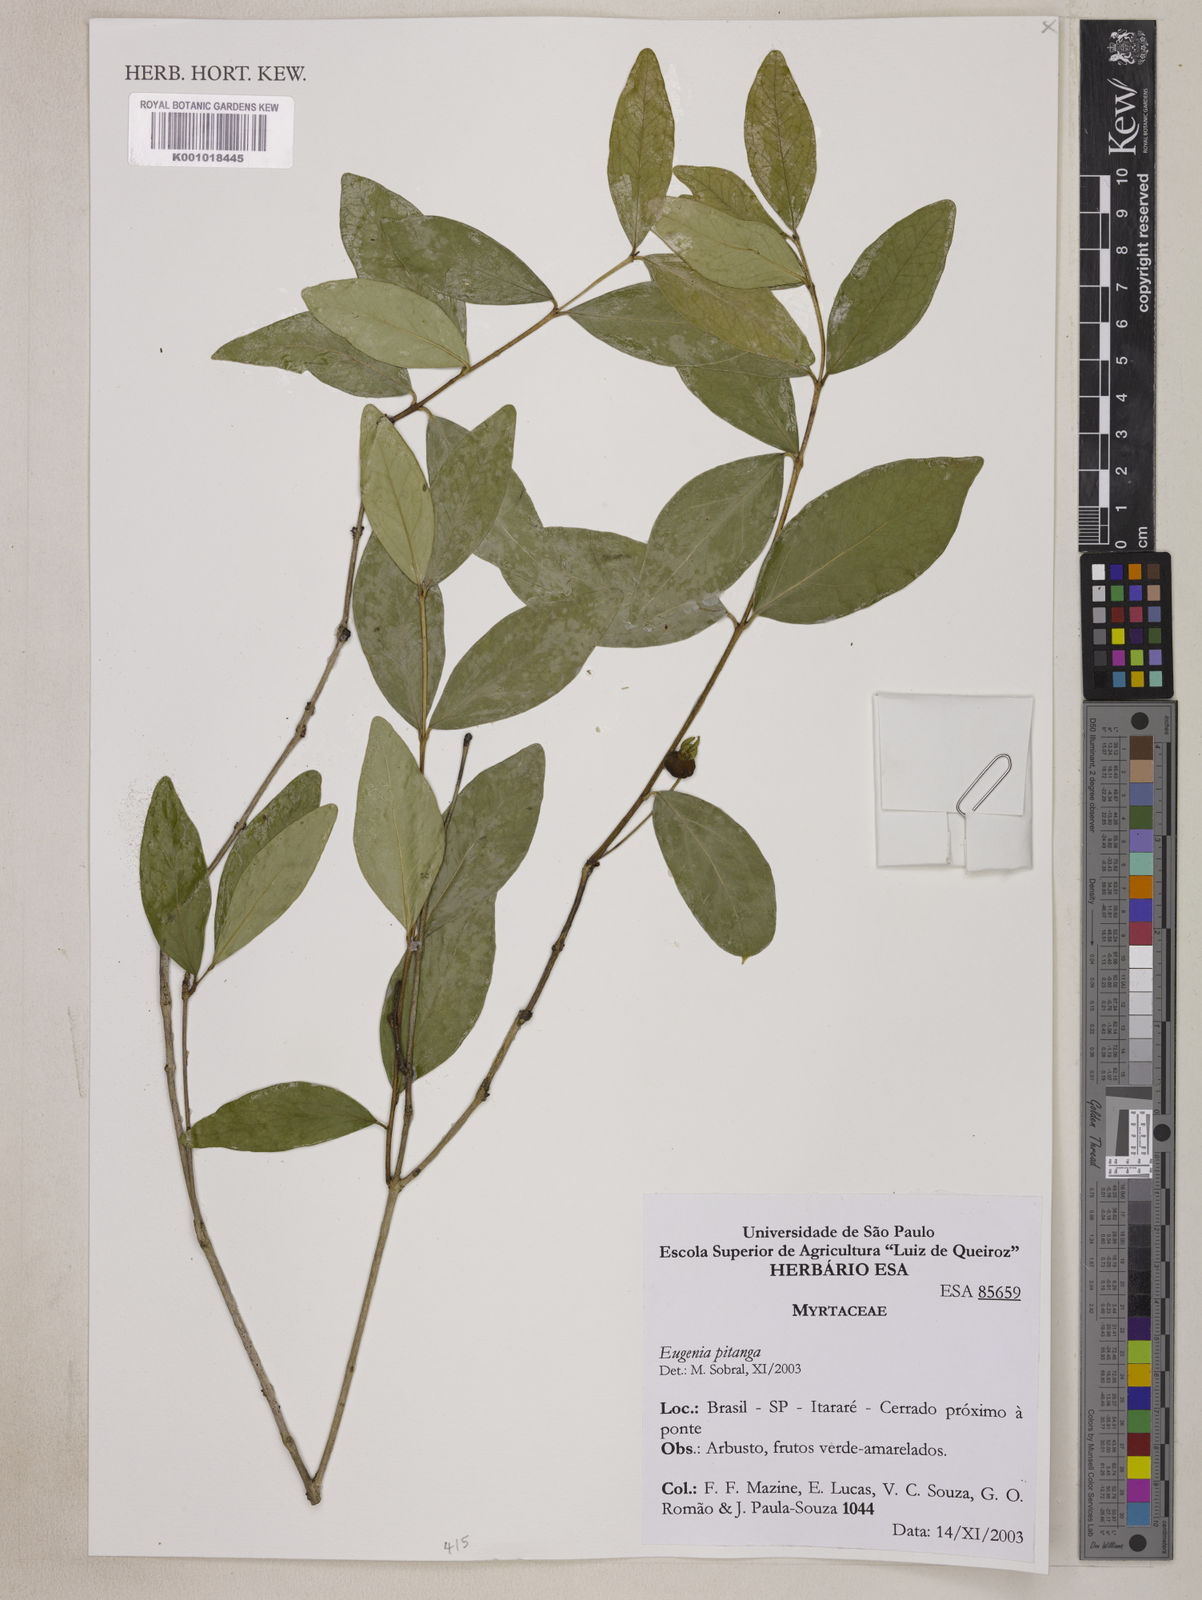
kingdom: Plantae
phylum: Tracheophyta
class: Magnoliopsida
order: Myrtales
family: Myrtaceae
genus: Eugenia
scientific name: Eugenia
